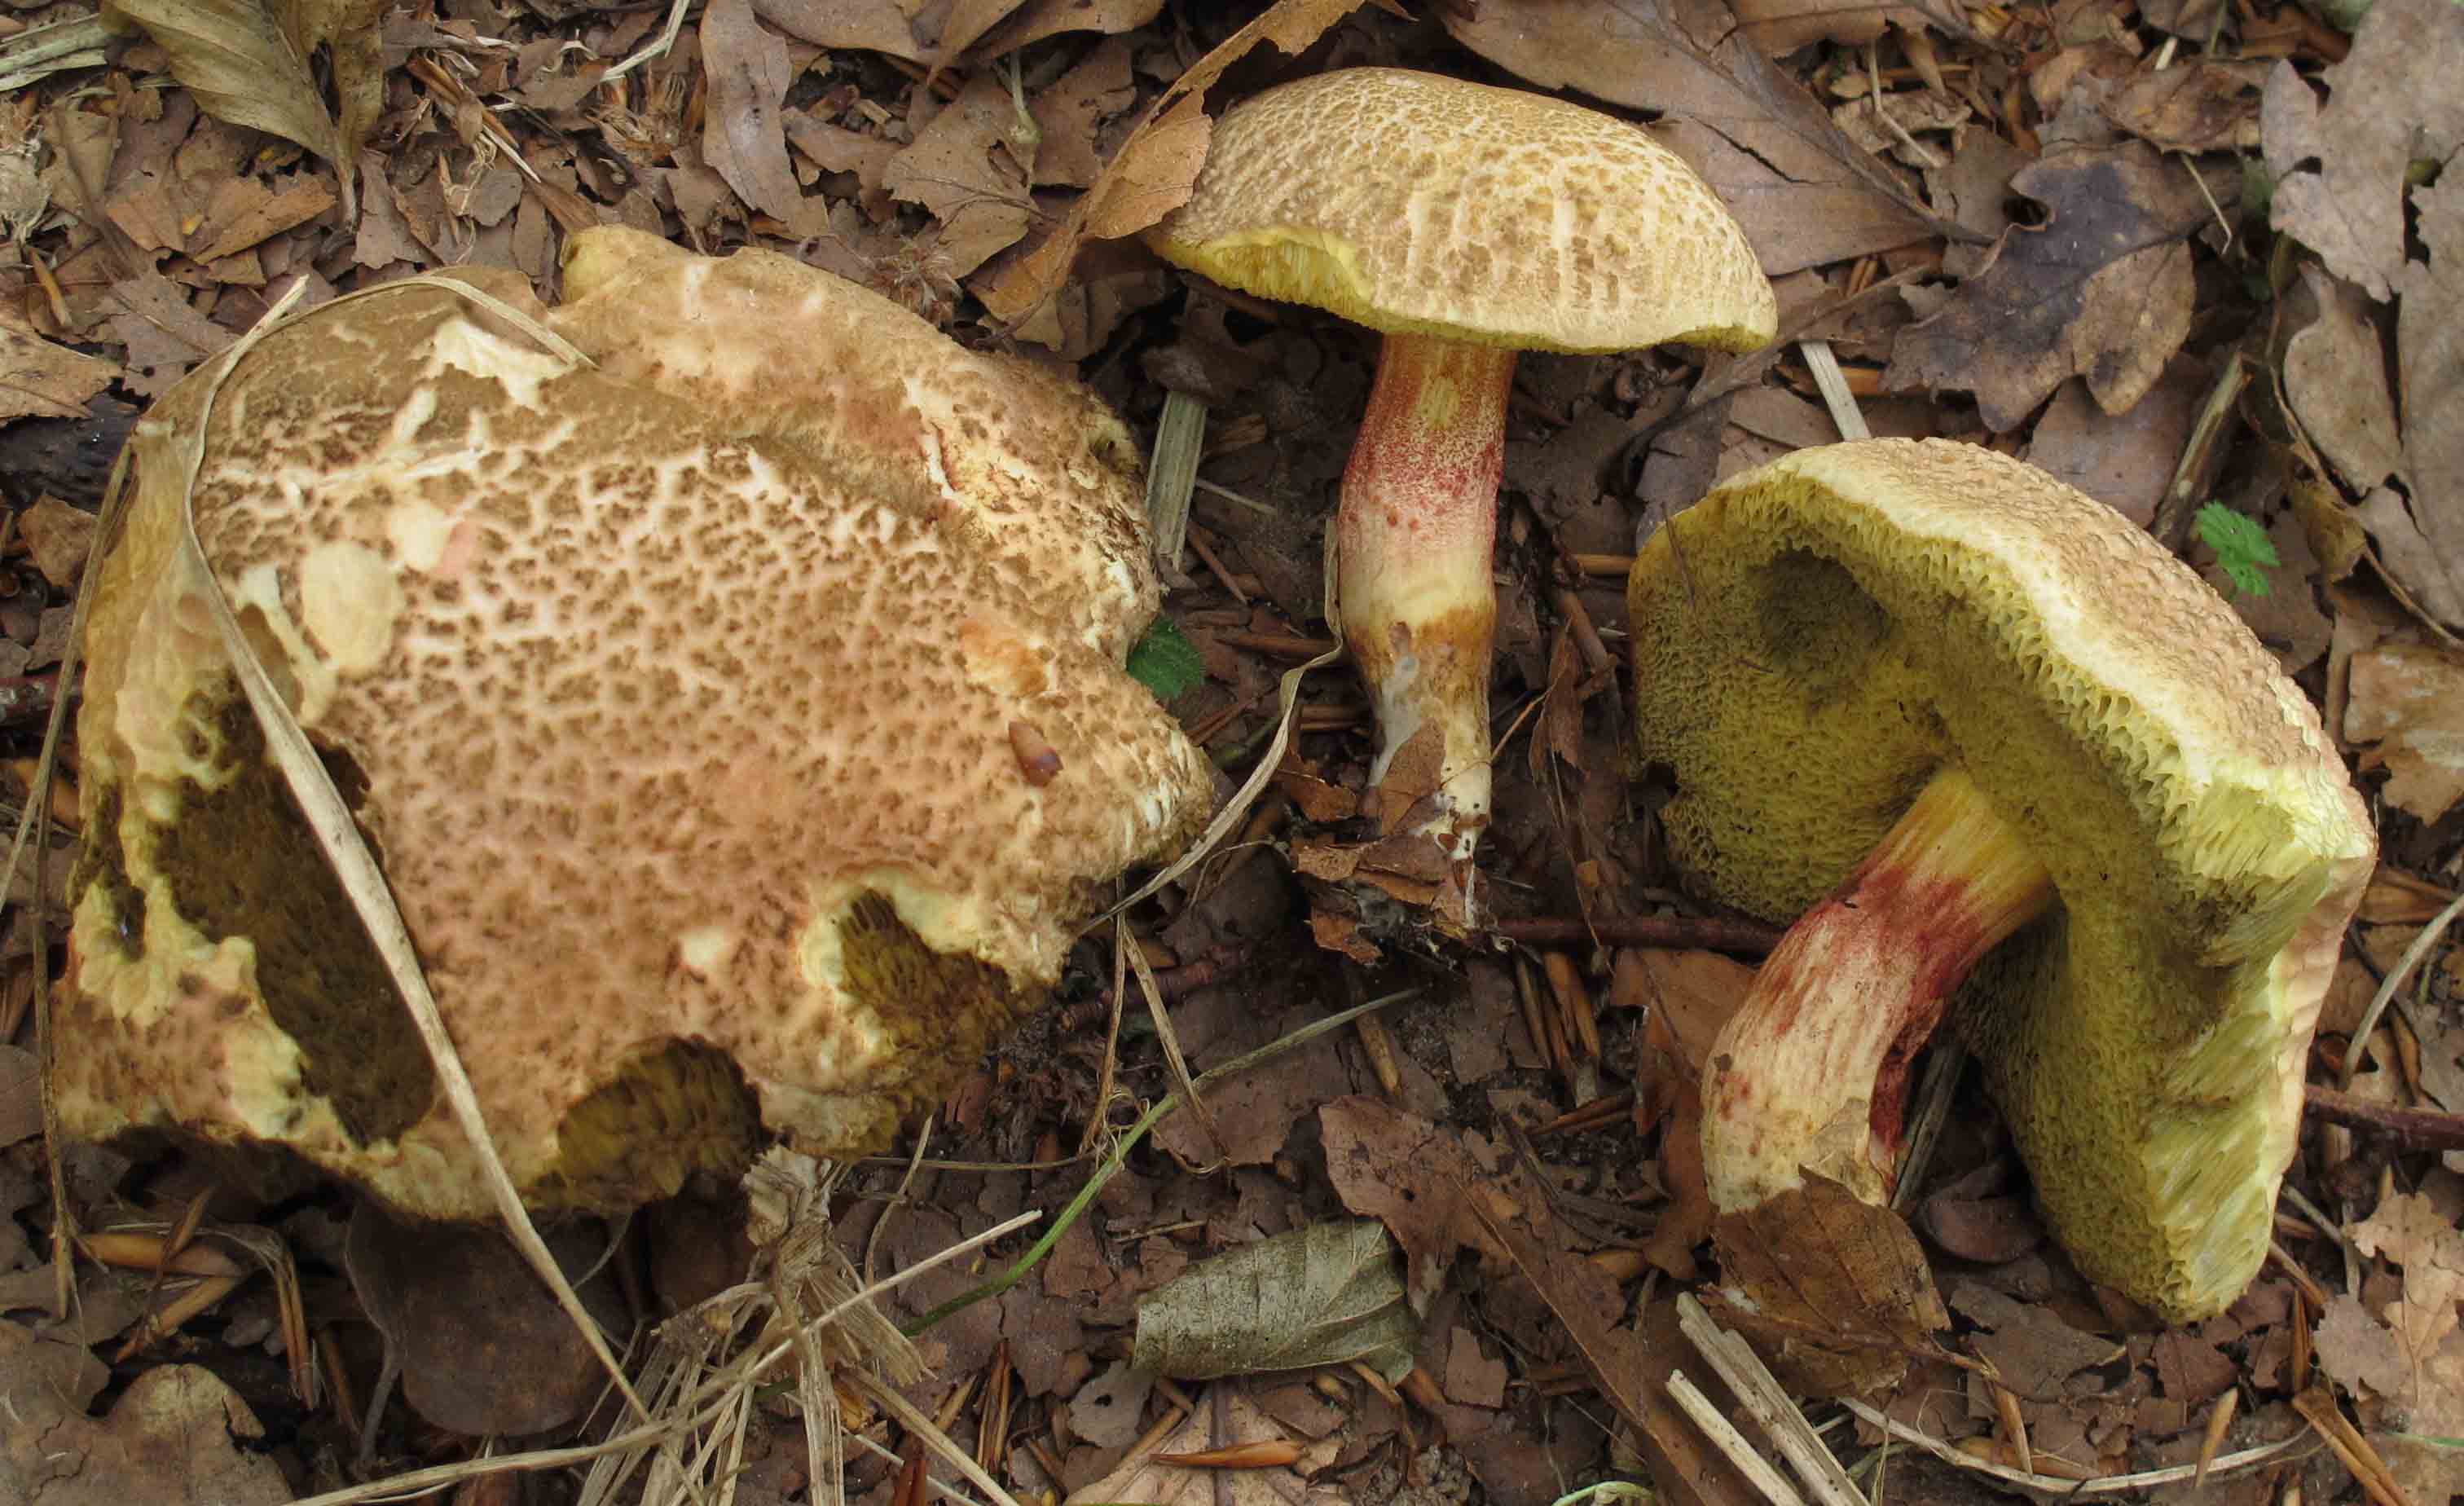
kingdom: Fungi
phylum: Basidiomycota
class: Agaricomycetes
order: Boletales
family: Boletaceae
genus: Xerocomellus
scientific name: Xerocomellus chrysenteron
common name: rødsprukken rørhat
